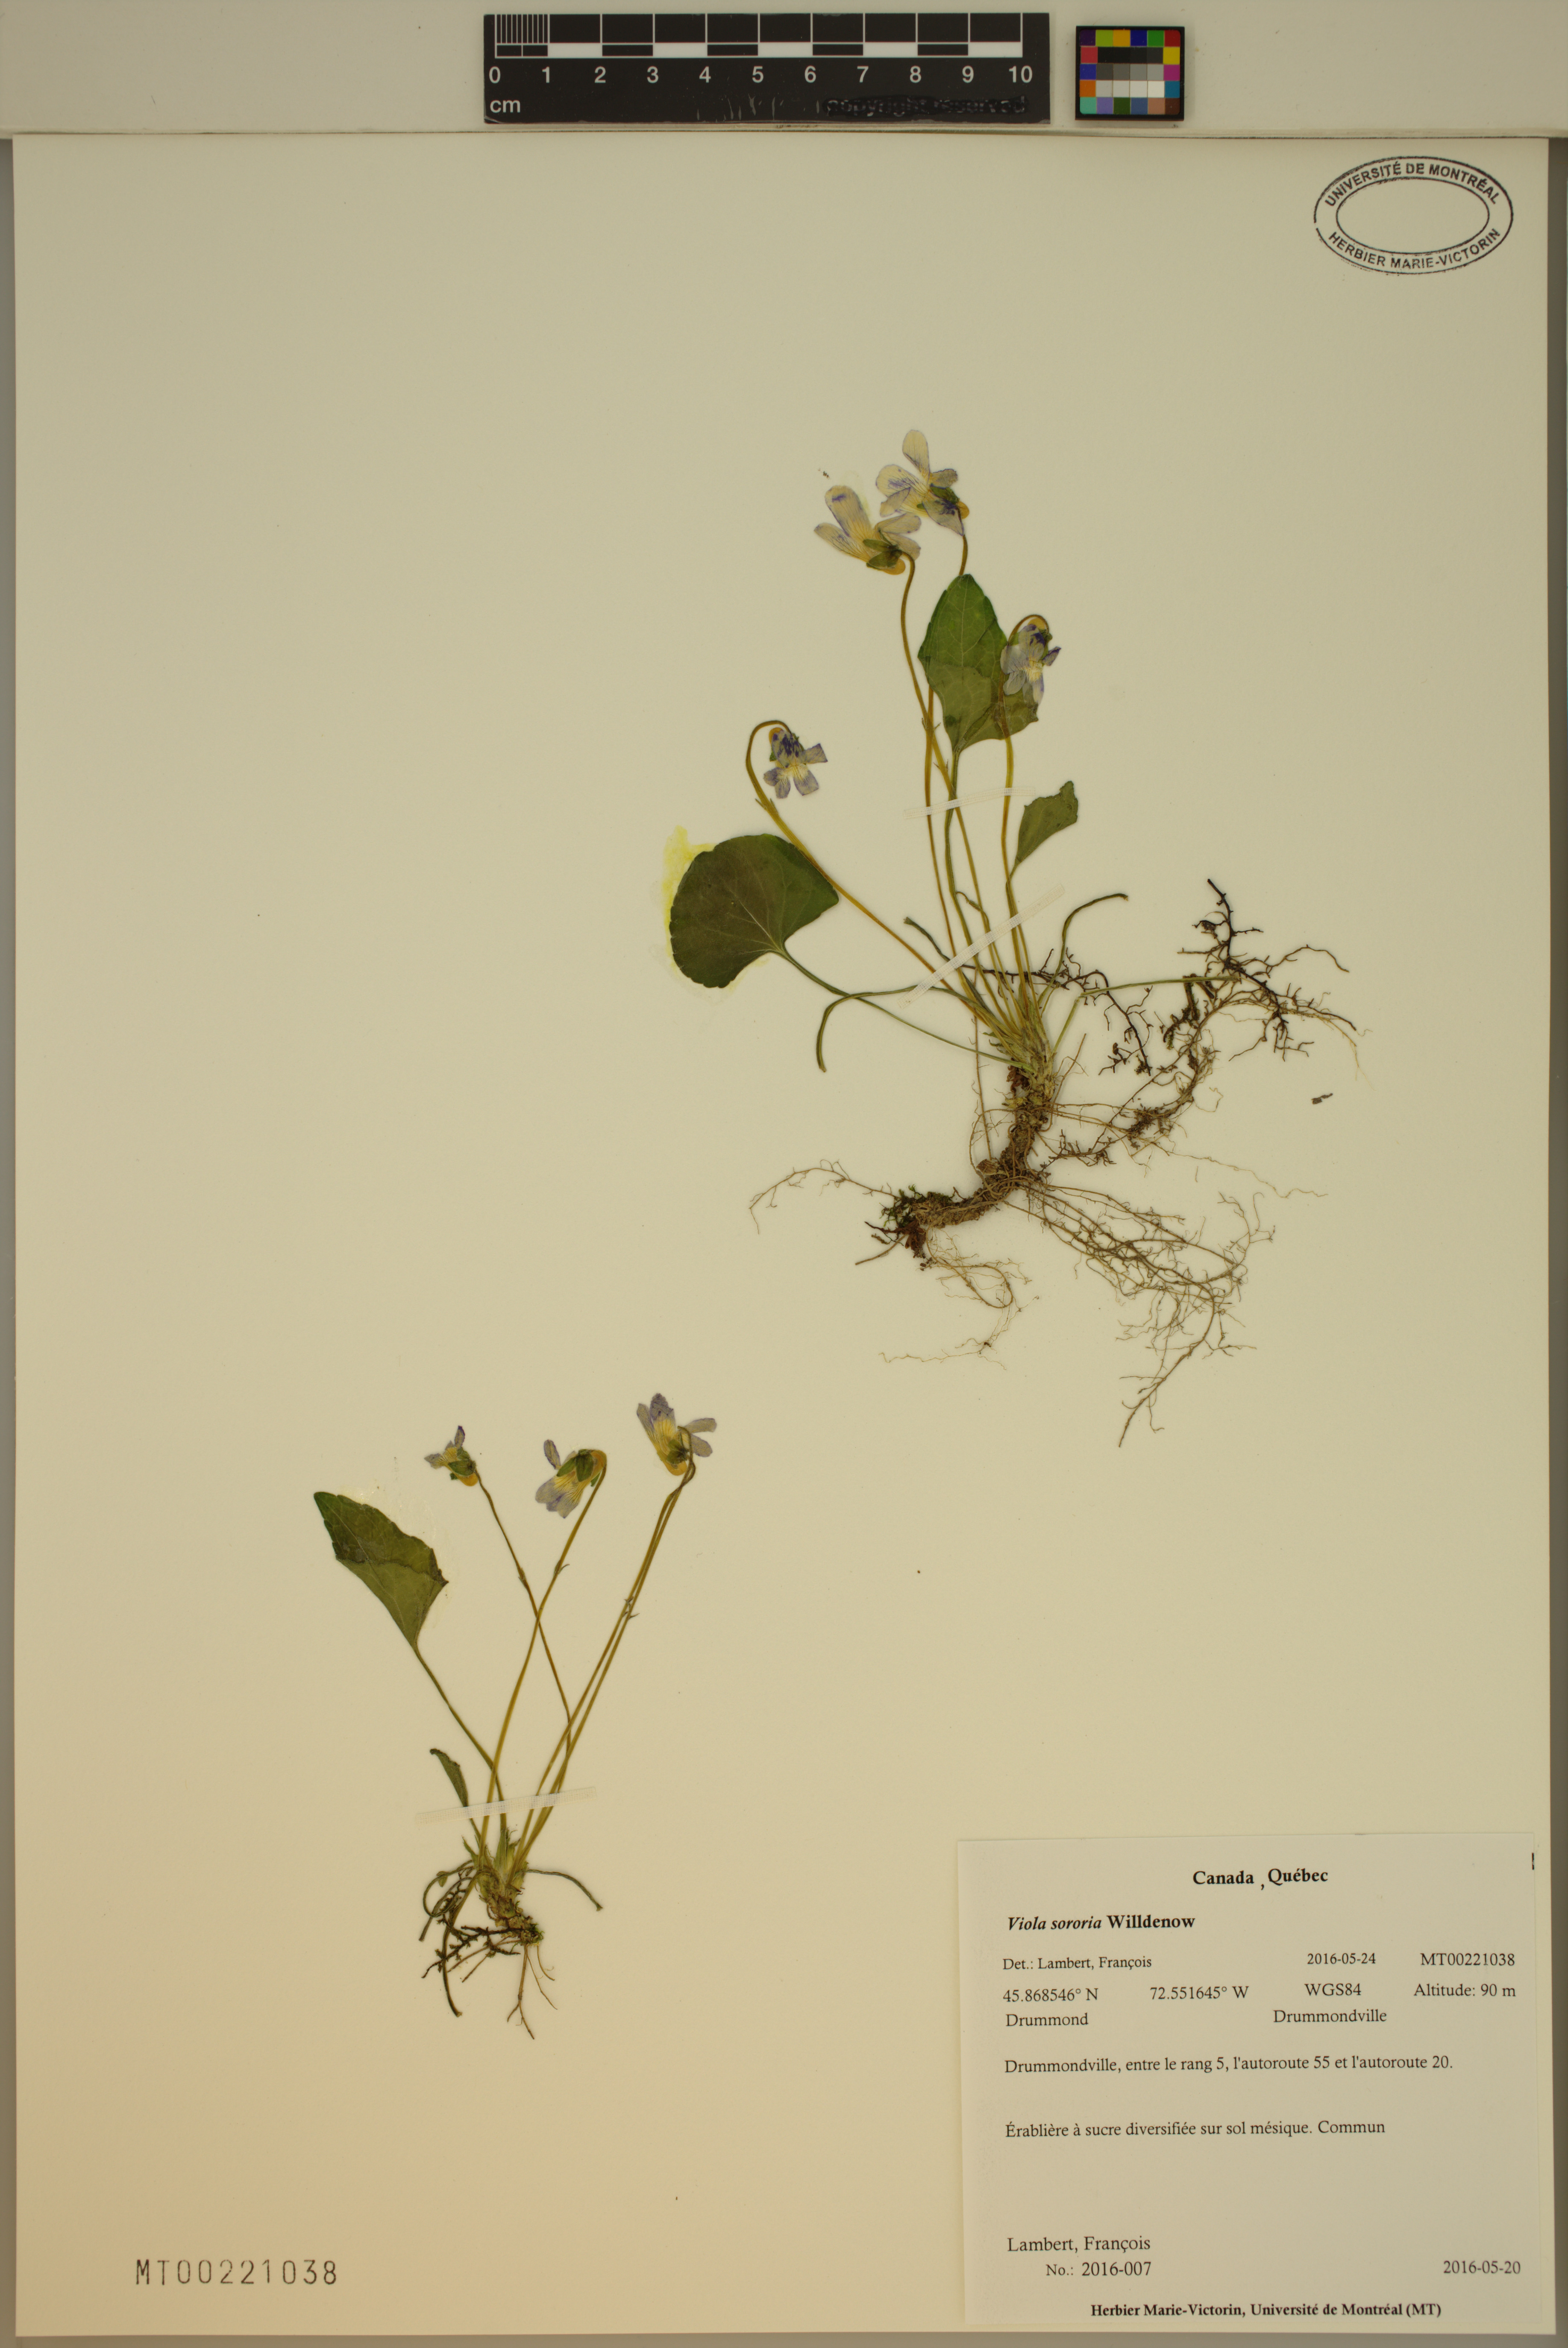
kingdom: Plantae
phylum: Tracheophyta
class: Magnoliopsida
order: Malpighiales
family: Violaceae
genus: Viola
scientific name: Viola sororia
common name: Dooryard violet
